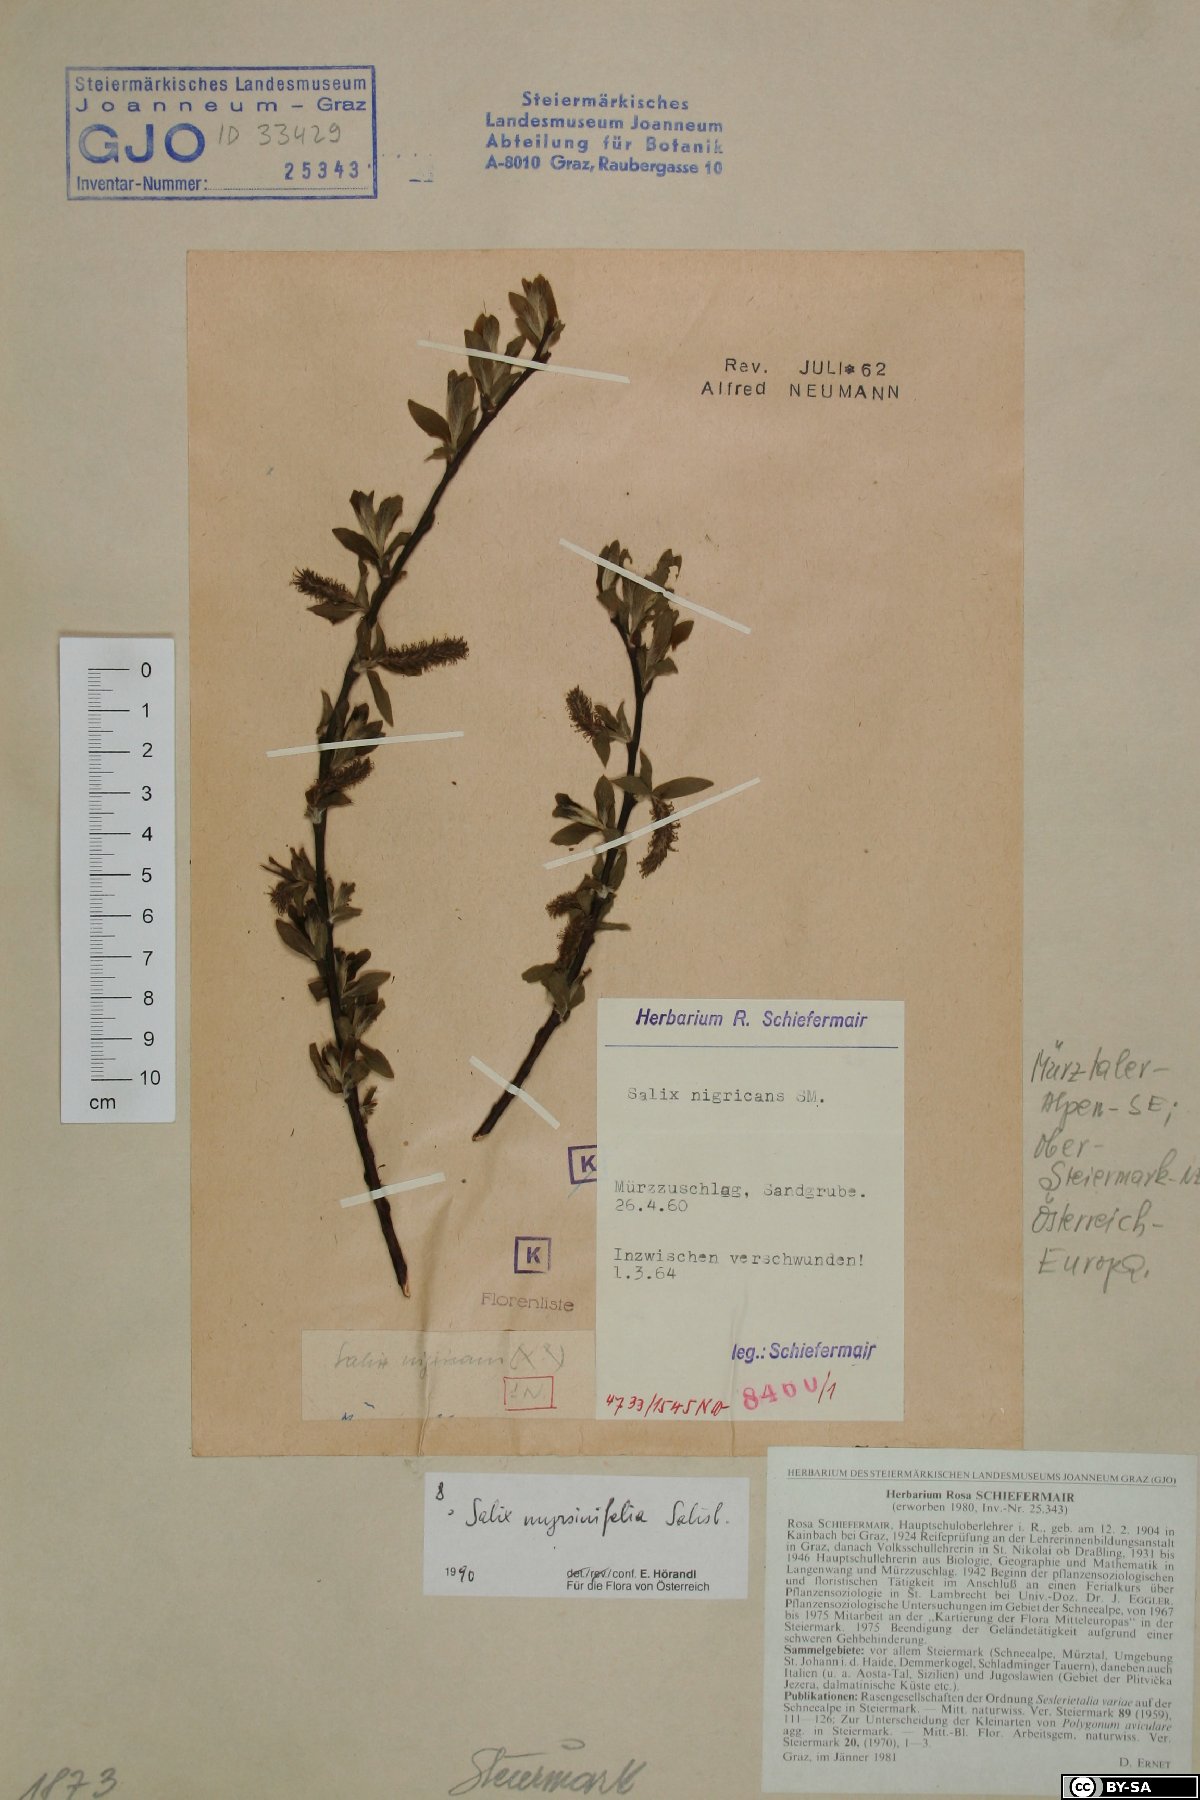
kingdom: Plantae
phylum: Tracheophyta
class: Magnoliopsida
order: Malpighiales
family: Salicaceae
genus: Salix
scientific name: Salix myrsinifolia
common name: Dark-leaved willow
